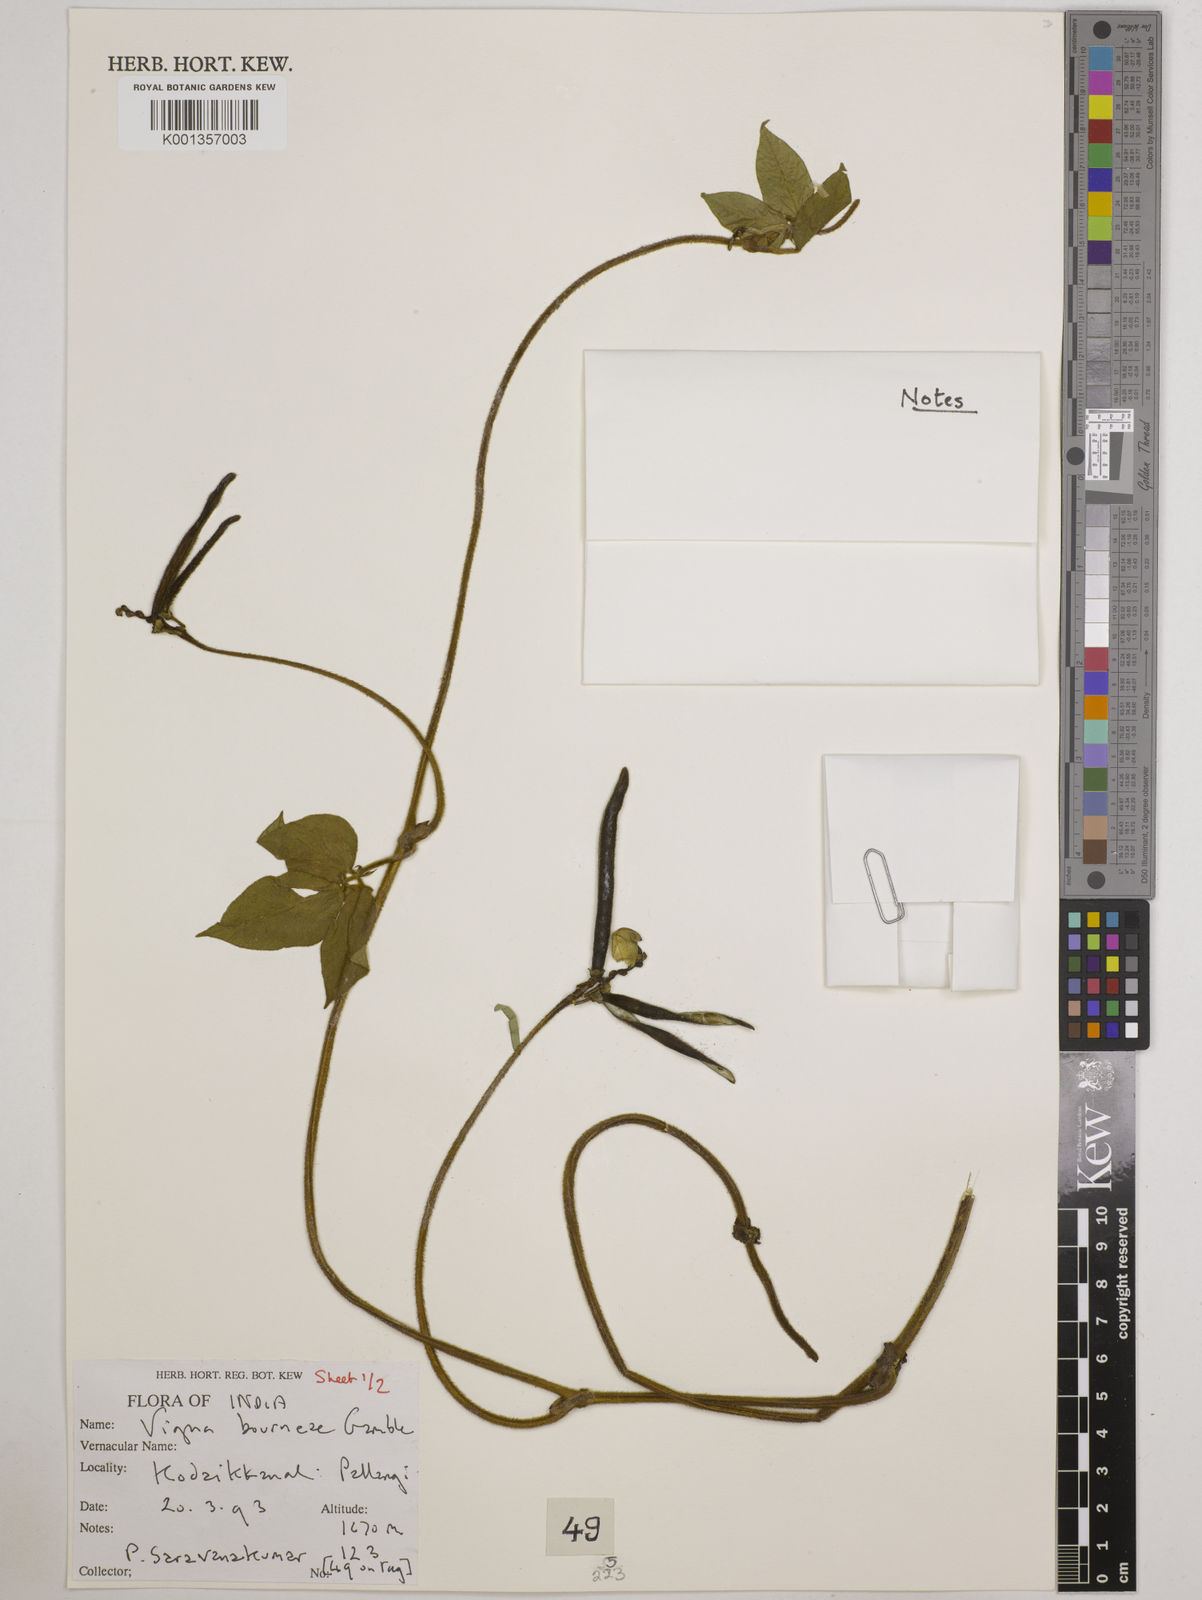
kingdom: Plantae
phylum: Tracheophyta
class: Magnoliopsida
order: Fabales
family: Fabaceae
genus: Vigna
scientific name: Vigna
